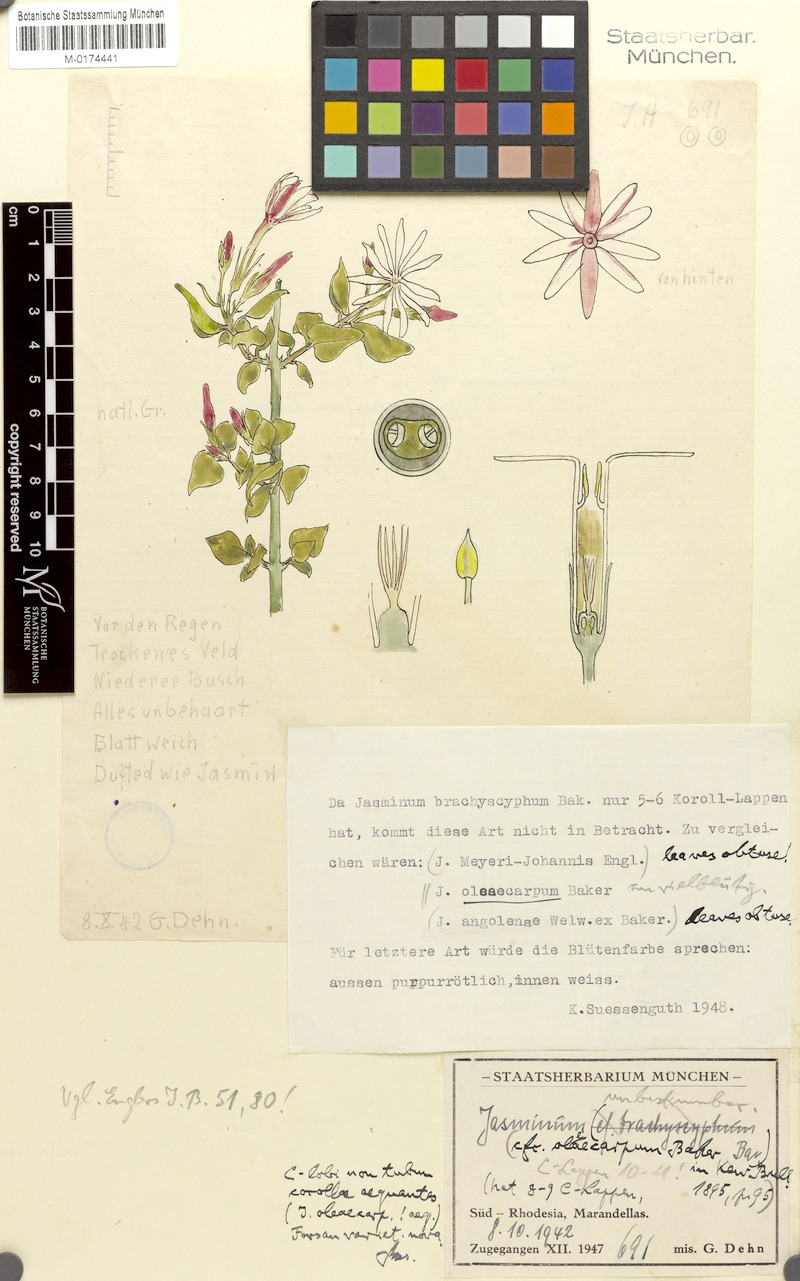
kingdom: Plantae
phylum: Tracheophyta
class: Magnoliopsida
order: Lamiales
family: Oleaceae
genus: Jasminum
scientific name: Jasminum
